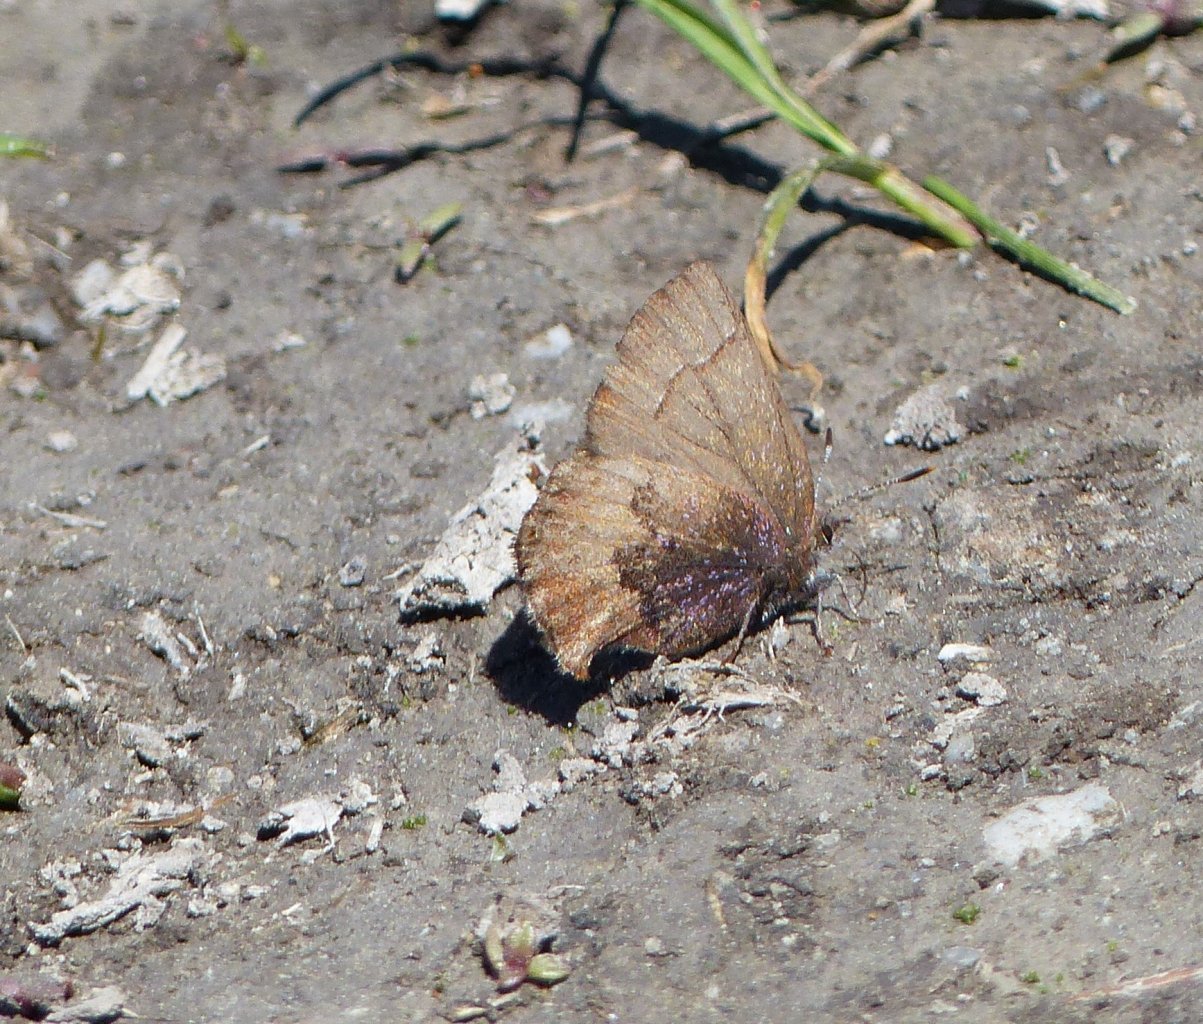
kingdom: Animalia
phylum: Arthropoda
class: Insecta
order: Lepidoptera
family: Lycaenidae
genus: Incisalia
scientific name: Incisalia irioides
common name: Brown Elfin
